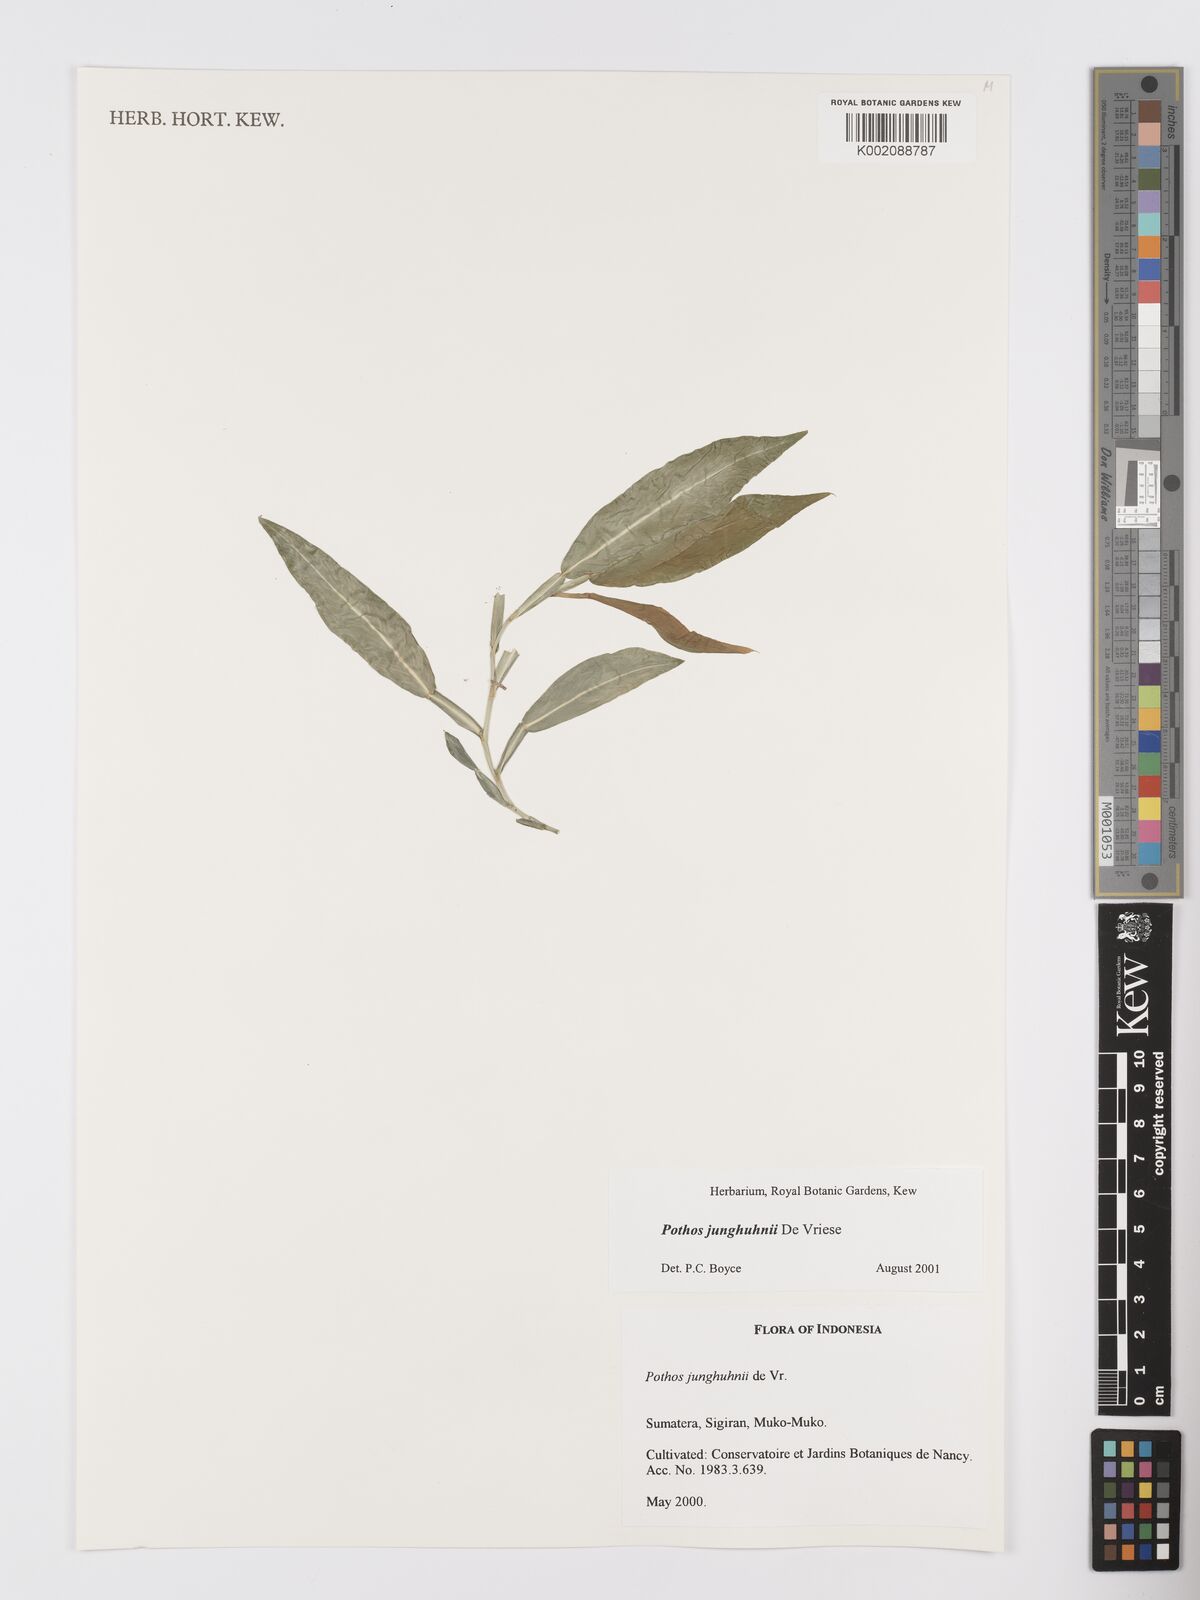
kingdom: Plantae
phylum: Tracheophyta
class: Liliopsida
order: Alismatales
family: Araceae
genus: Pothos
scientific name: Pothos junghuhnii
